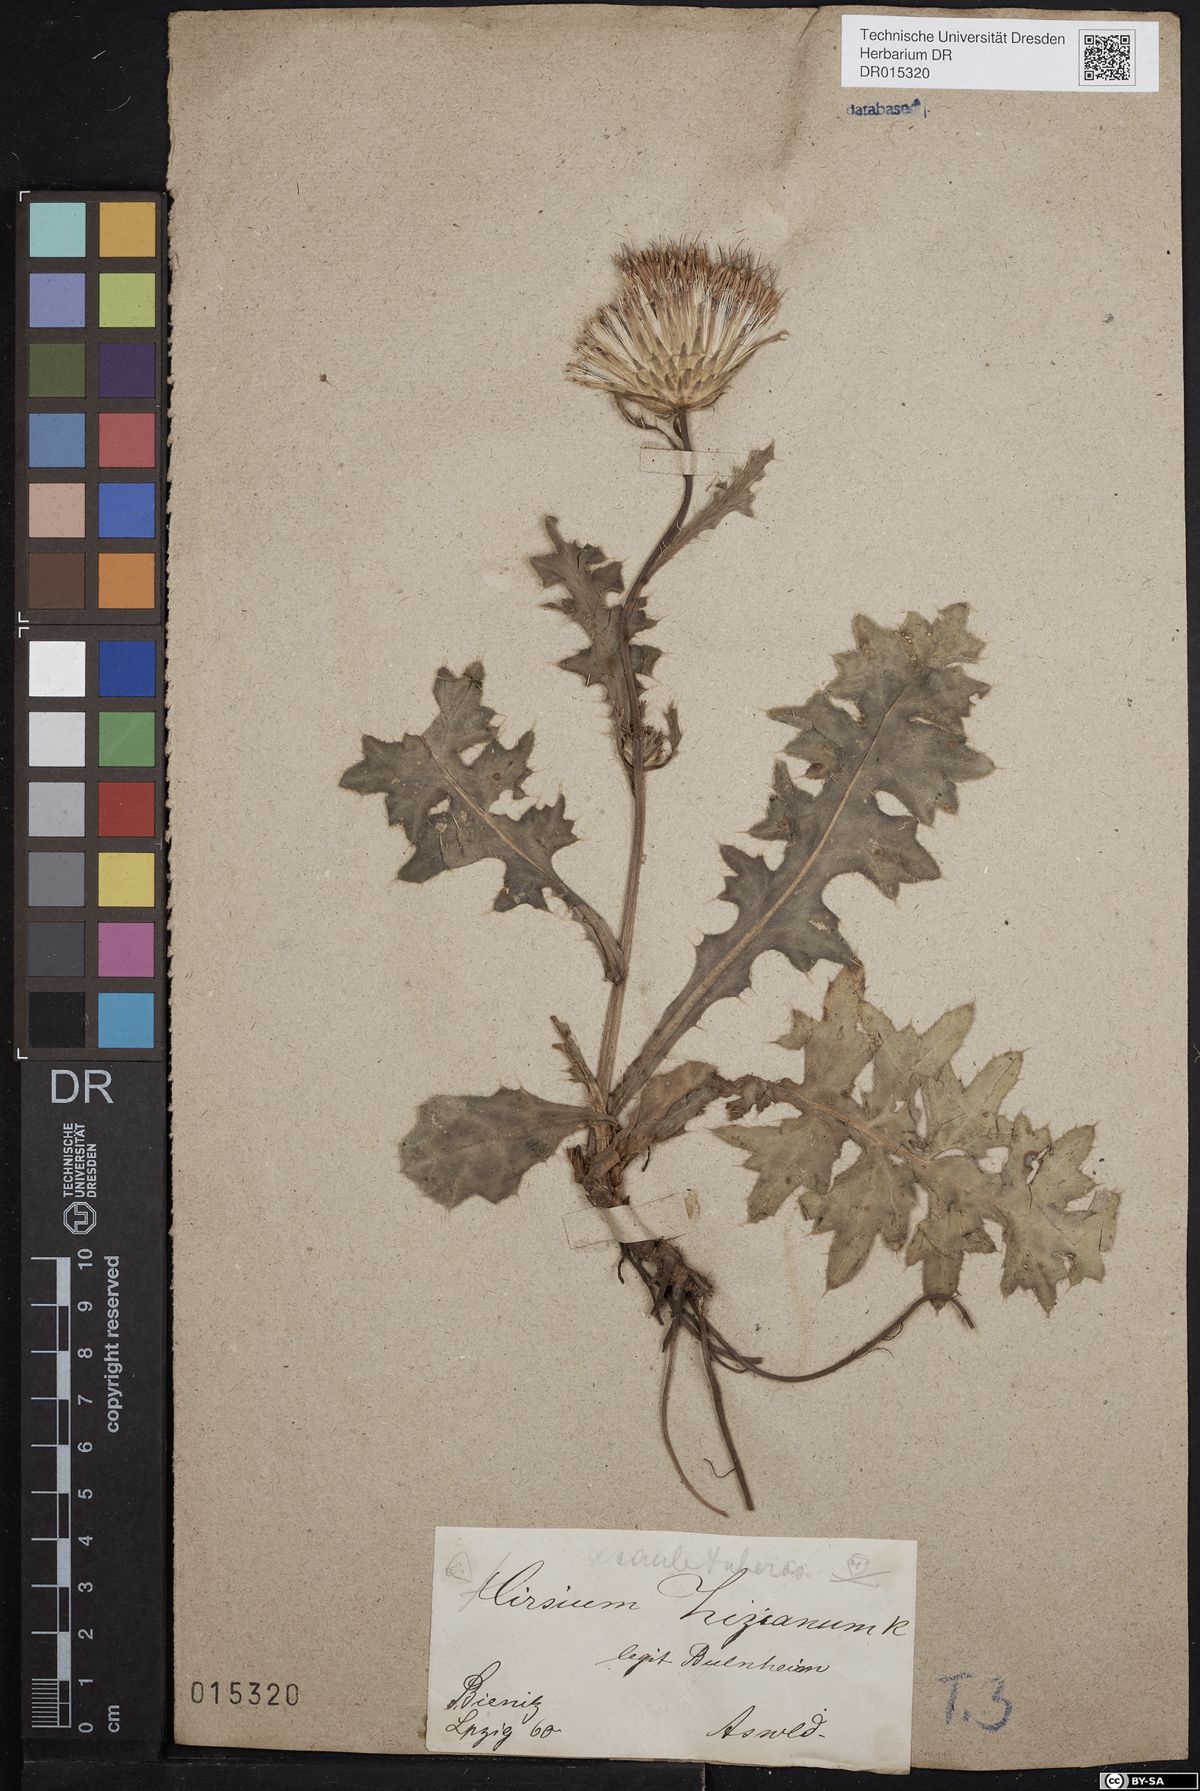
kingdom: Plantae
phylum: Tracheophyta
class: Magnoliopsida
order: Asterales
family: Asteraceae
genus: Cirsium
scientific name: Cirsium medium
